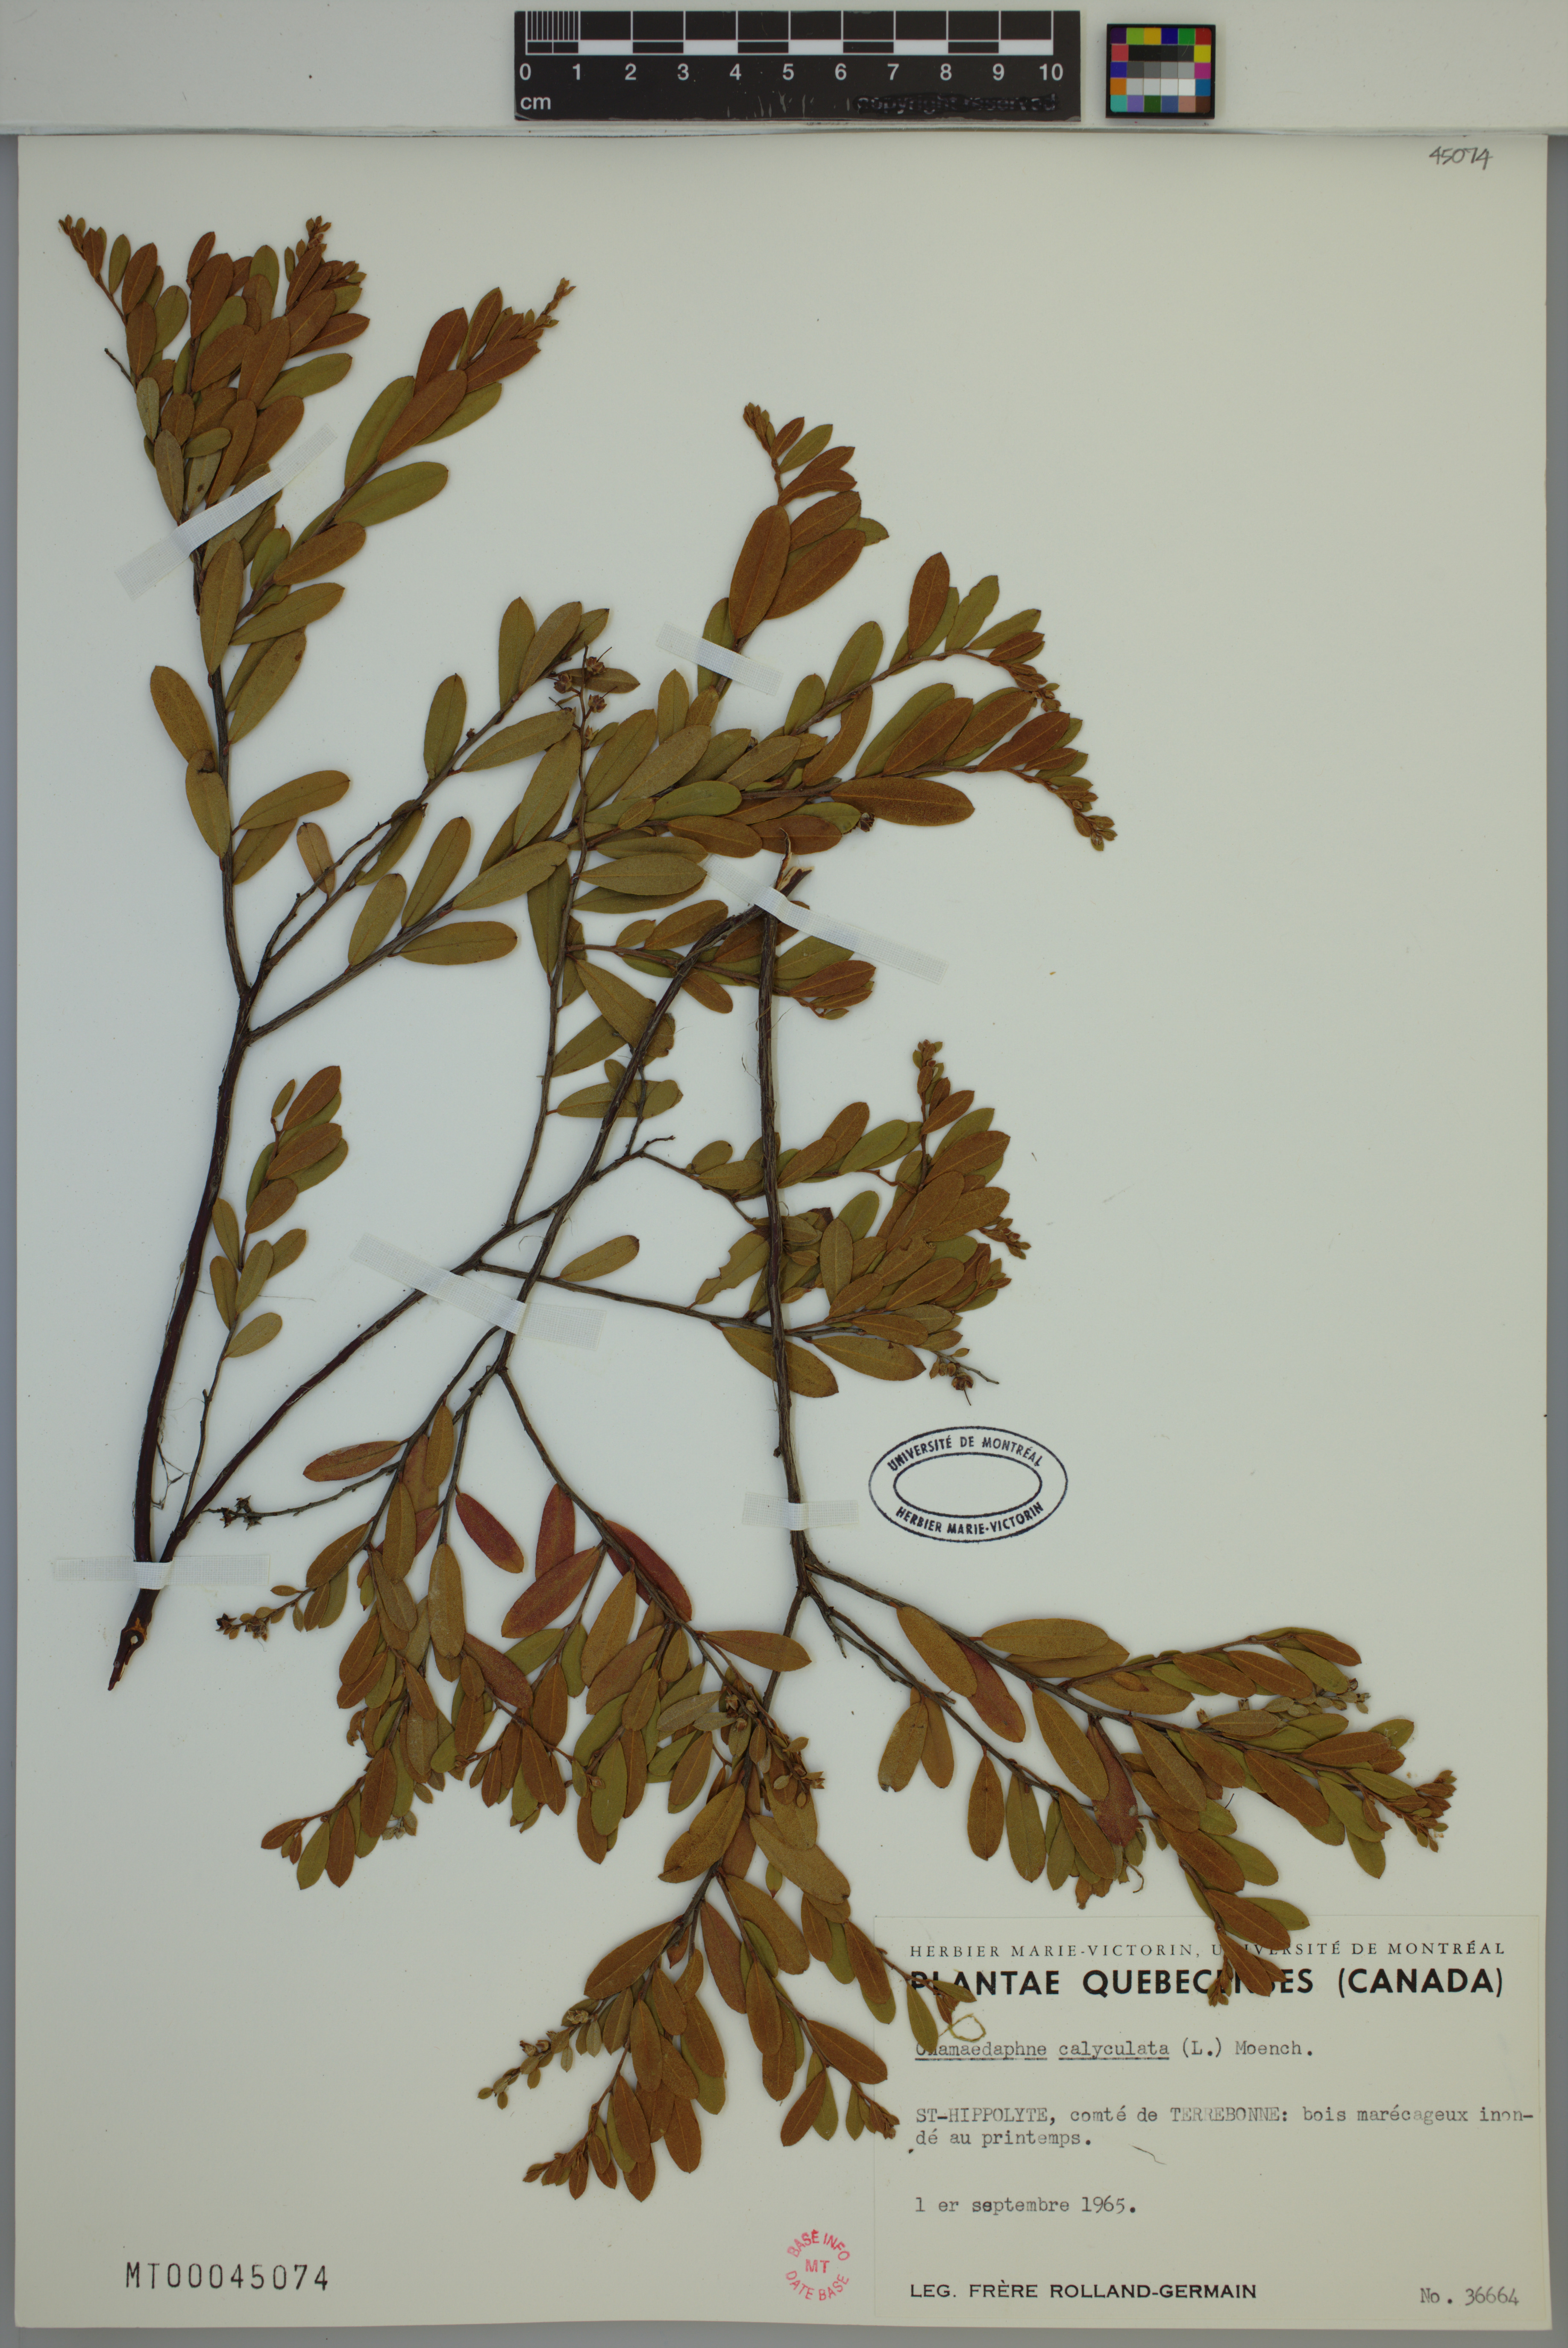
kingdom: Plantae
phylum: Tracheophyta
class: Magnoliopsida
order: Ericales
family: Ericaceae
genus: Chamaedaphne
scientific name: Chamaedaphne calyculata
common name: Leatherleaf
